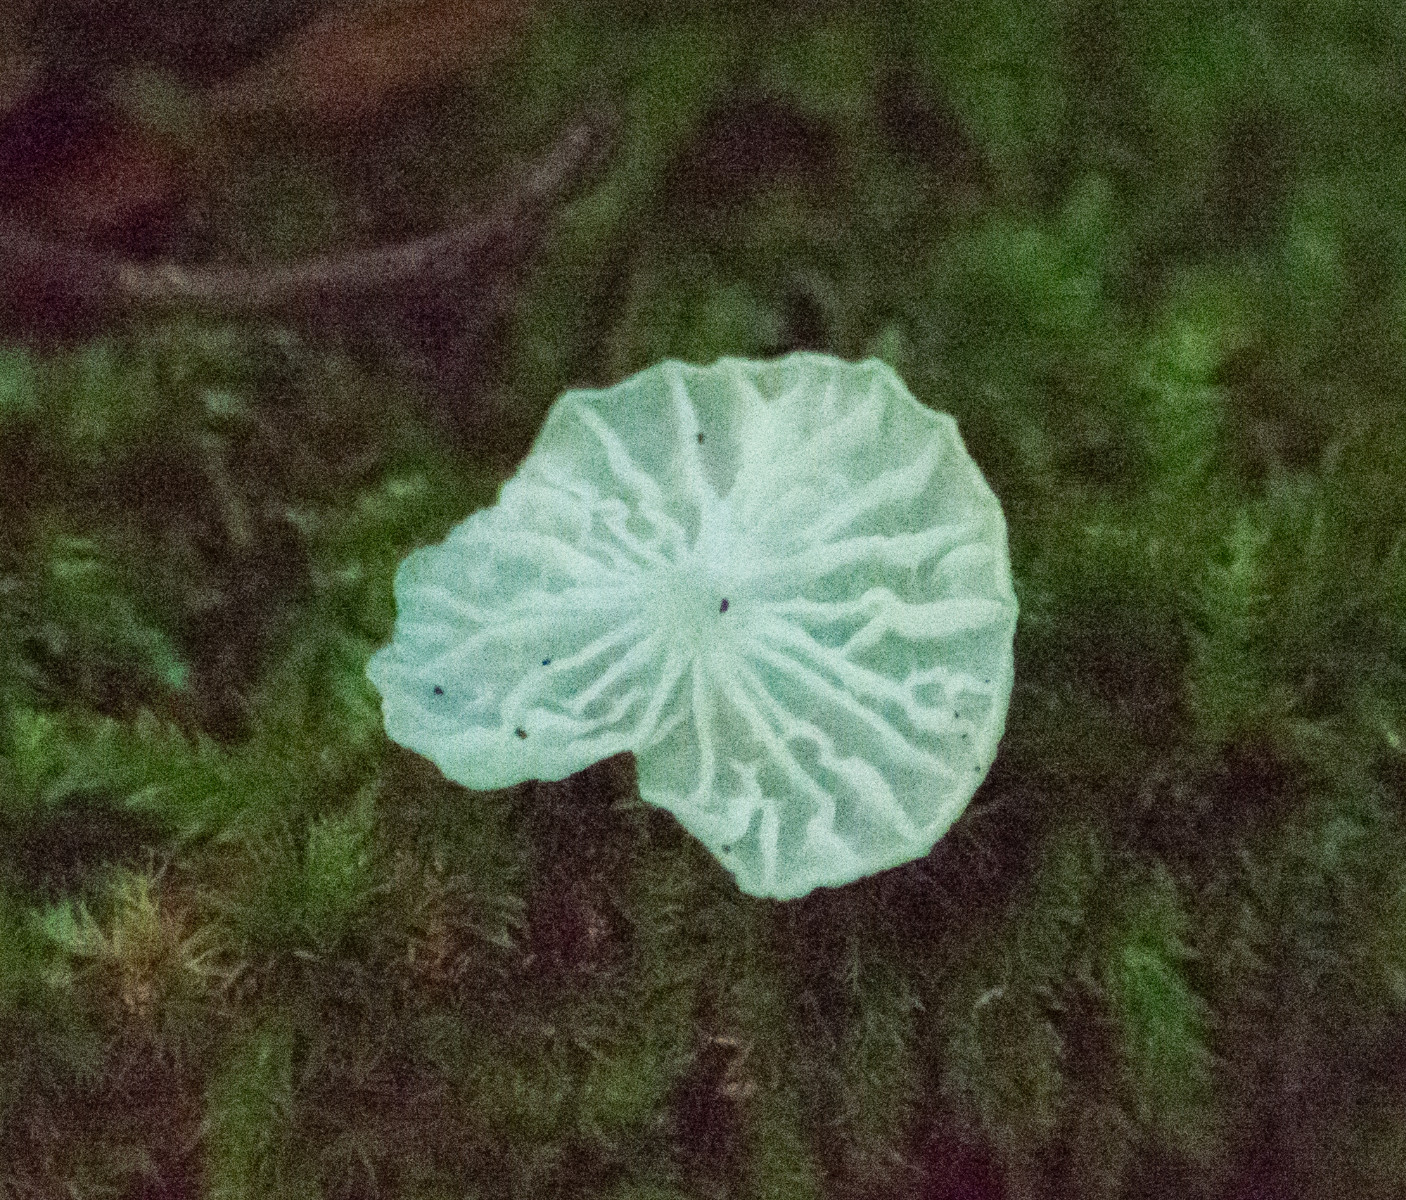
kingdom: Fungi
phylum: Basidiomycota
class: Agaricomycetes
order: Agaricales
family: Tricholomataceae
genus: Delicatula
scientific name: Delicatula integrella
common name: slørhuesvamp
